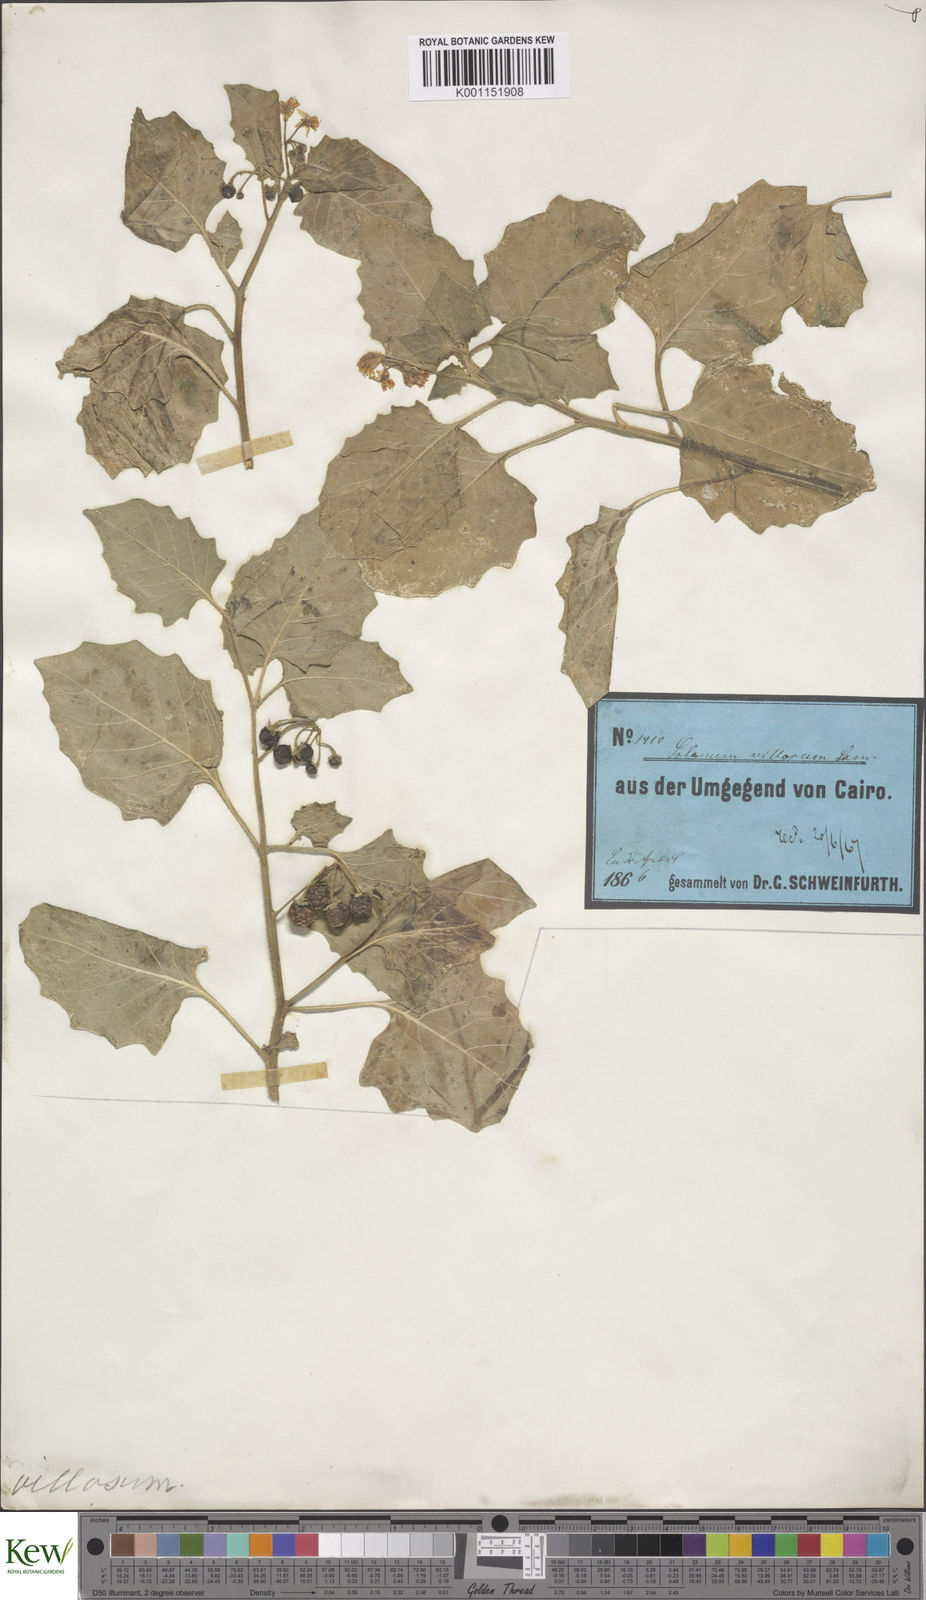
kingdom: Plantae
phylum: Tracheophyta
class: Magnoliopsida
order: Solanales
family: Solanaceae
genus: Solanum
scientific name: Solanum villosum
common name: Red nightshade
